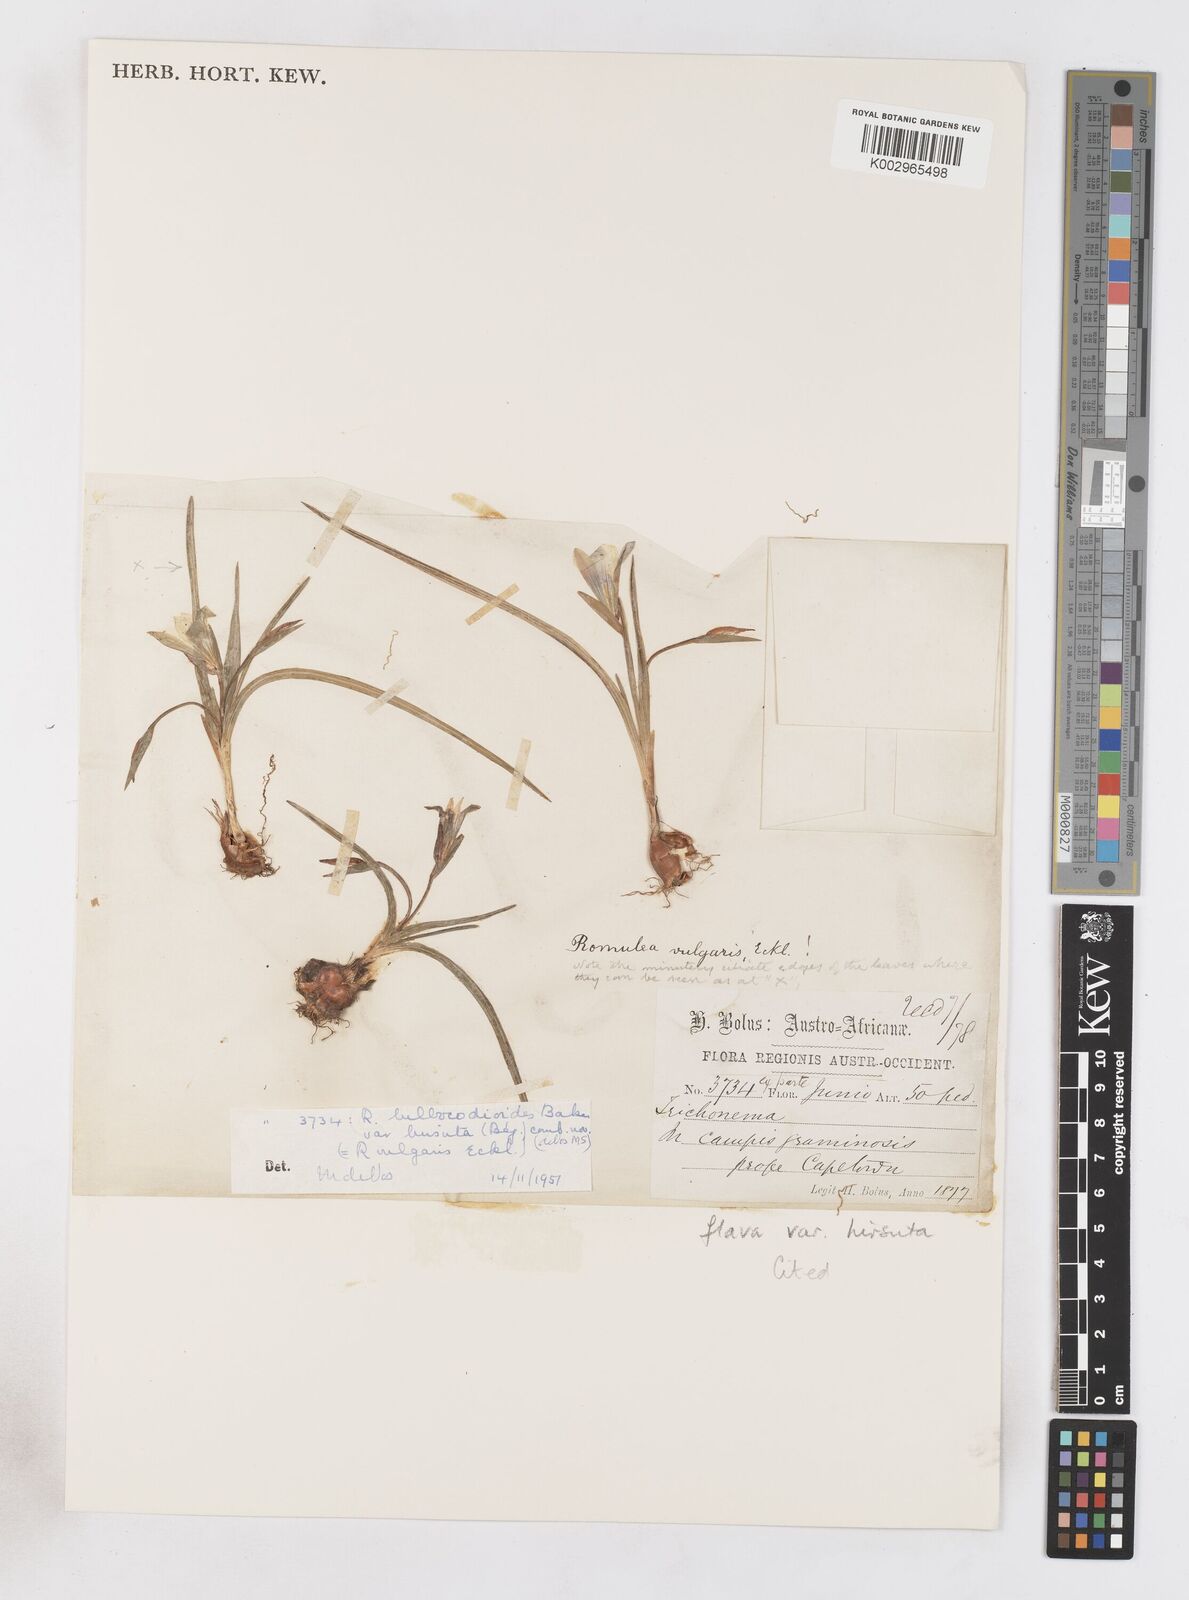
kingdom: Plantae
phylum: Tracheophyta
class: Liliopsida
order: Asparagales
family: Iridaceae
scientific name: Iridaceae
